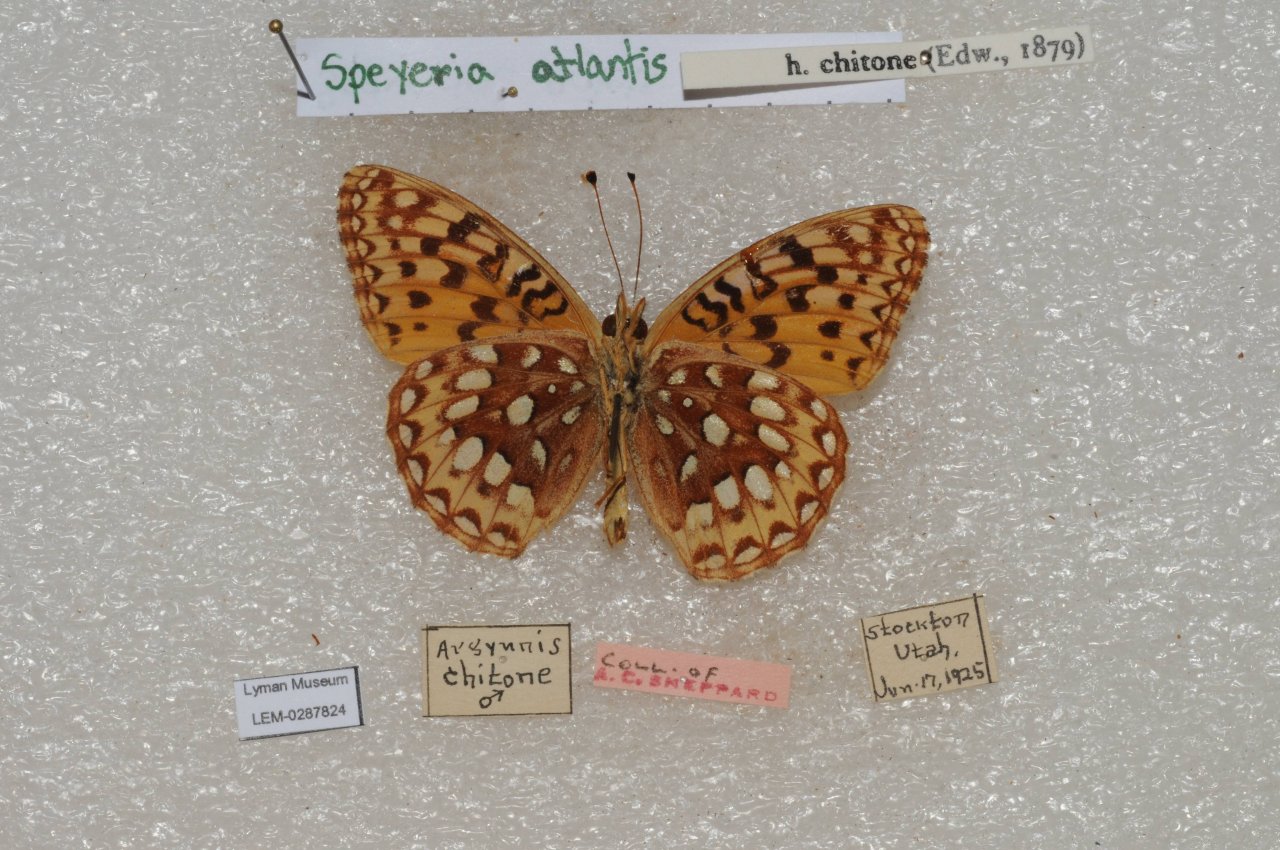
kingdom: Animalia
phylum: Arthropoda
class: Insecta
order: Lepidoptera
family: Nymphalidae
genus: Speyeria
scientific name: Speyeria atlantis
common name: Atlantis Fritillary
